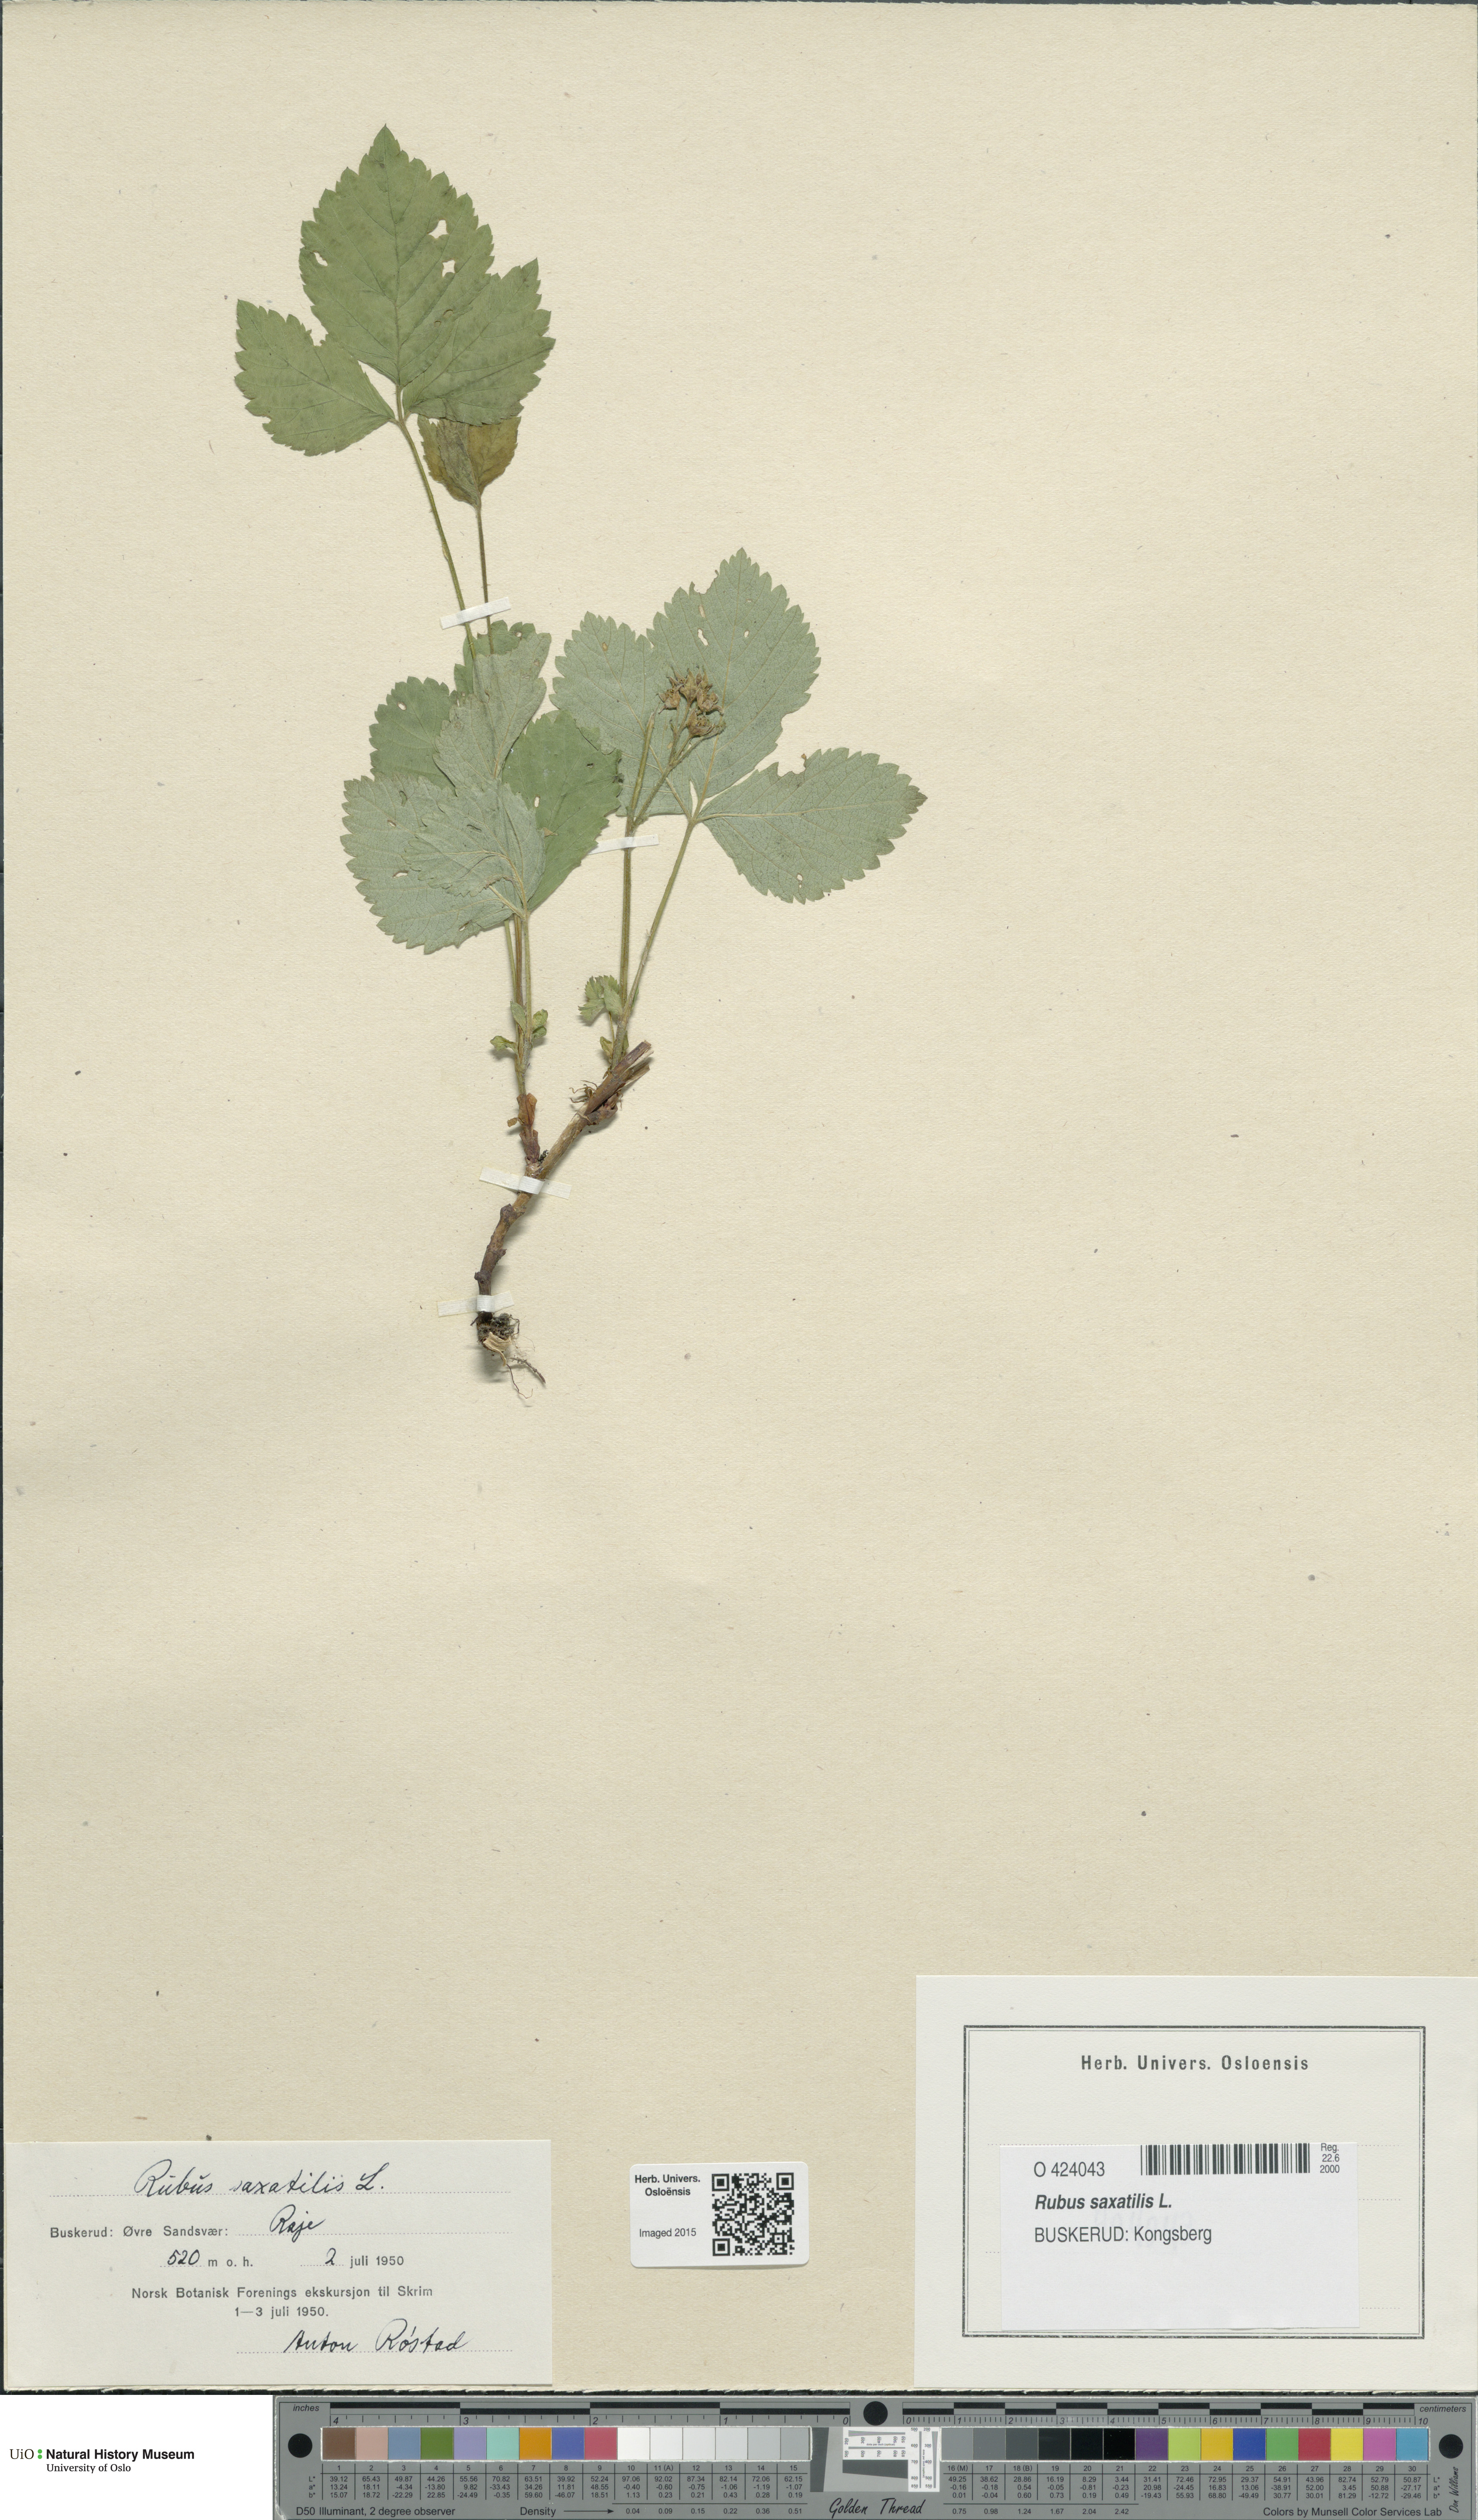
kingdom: Plantae
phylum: Tracheophyta
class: Magnoliopsida
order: Rosales
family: Rosaceae
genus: Rubus
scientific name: Rubus saxatilis
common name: Stone bramble
